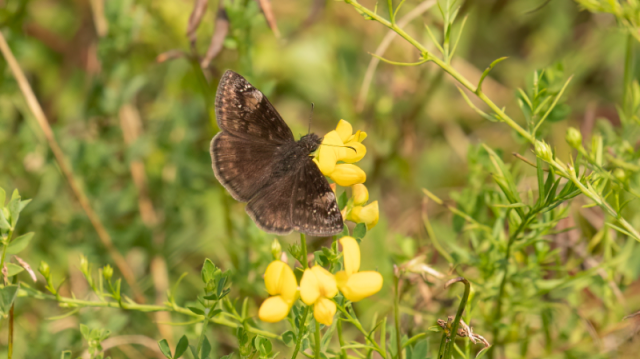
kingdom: Animalia
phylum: Arthropoda
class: Insecta
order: Lepidoptera
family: Hesperiidae
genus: Gesta
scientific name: Gesta
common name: Wild Indigo Duskywing
